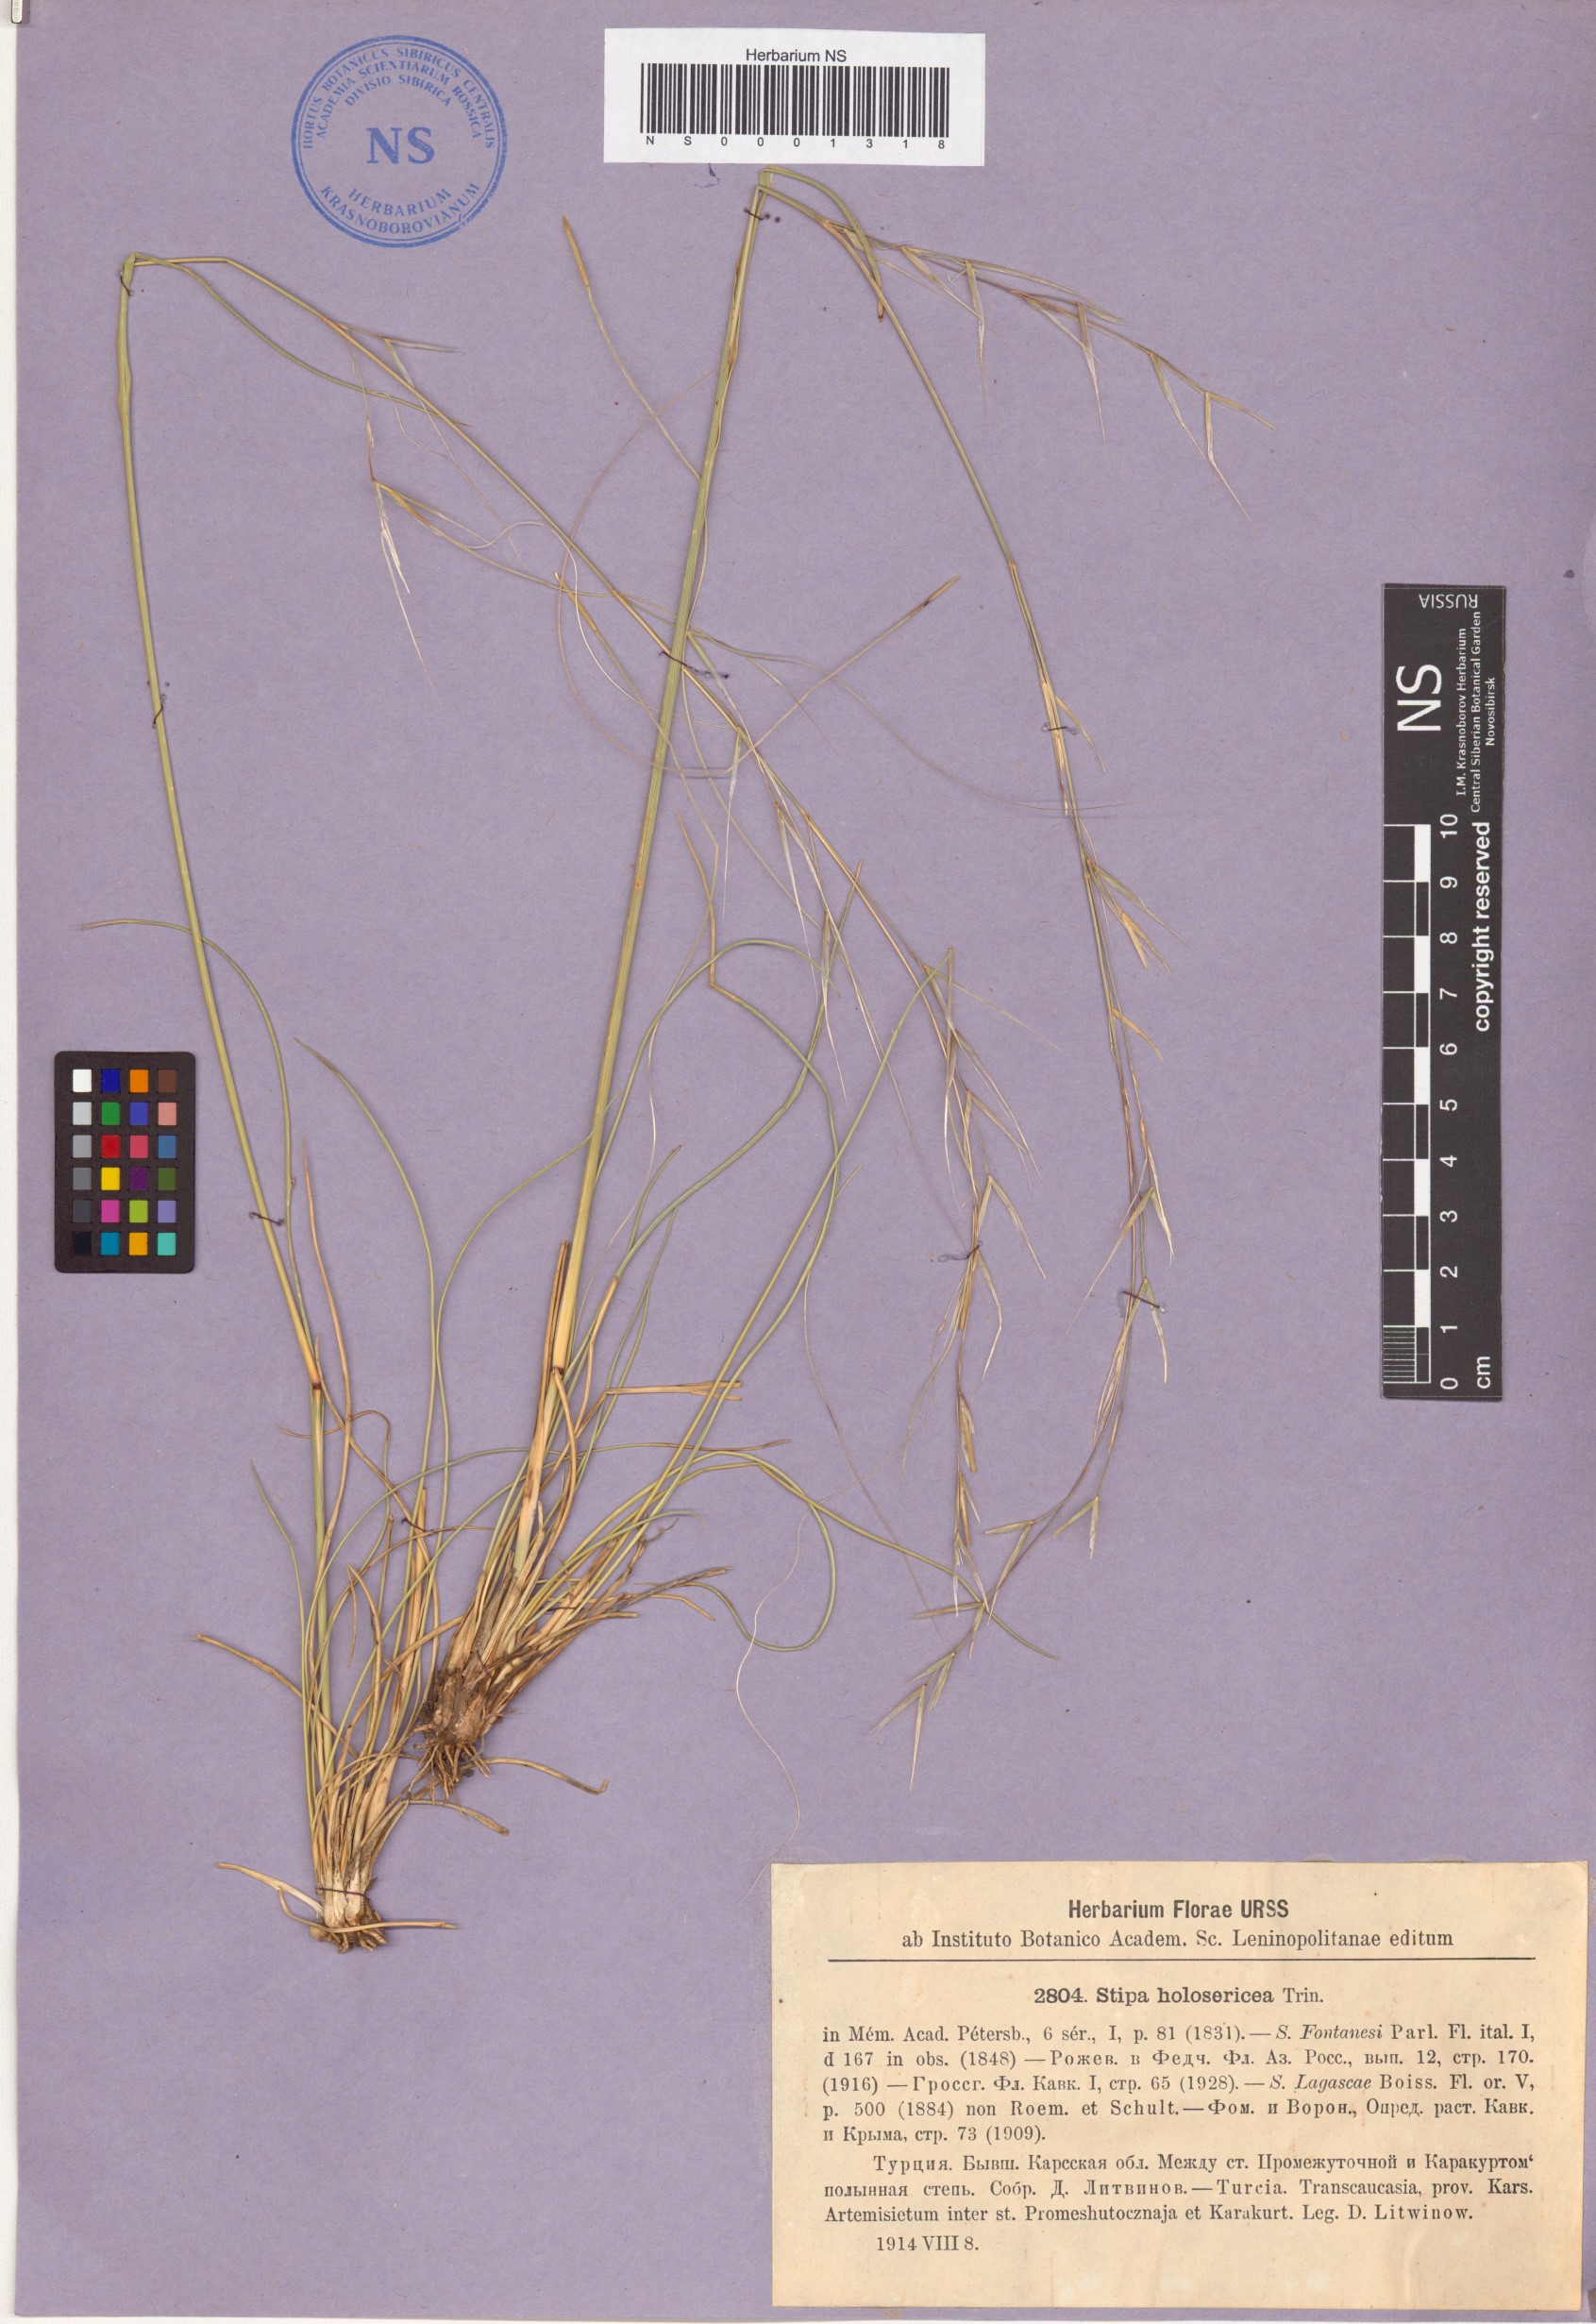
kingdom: Plantae
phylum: Tracheophyta
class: Liliopsida
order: Poales
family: Poaceae
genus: Stipa
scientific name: Stipa holosericea
